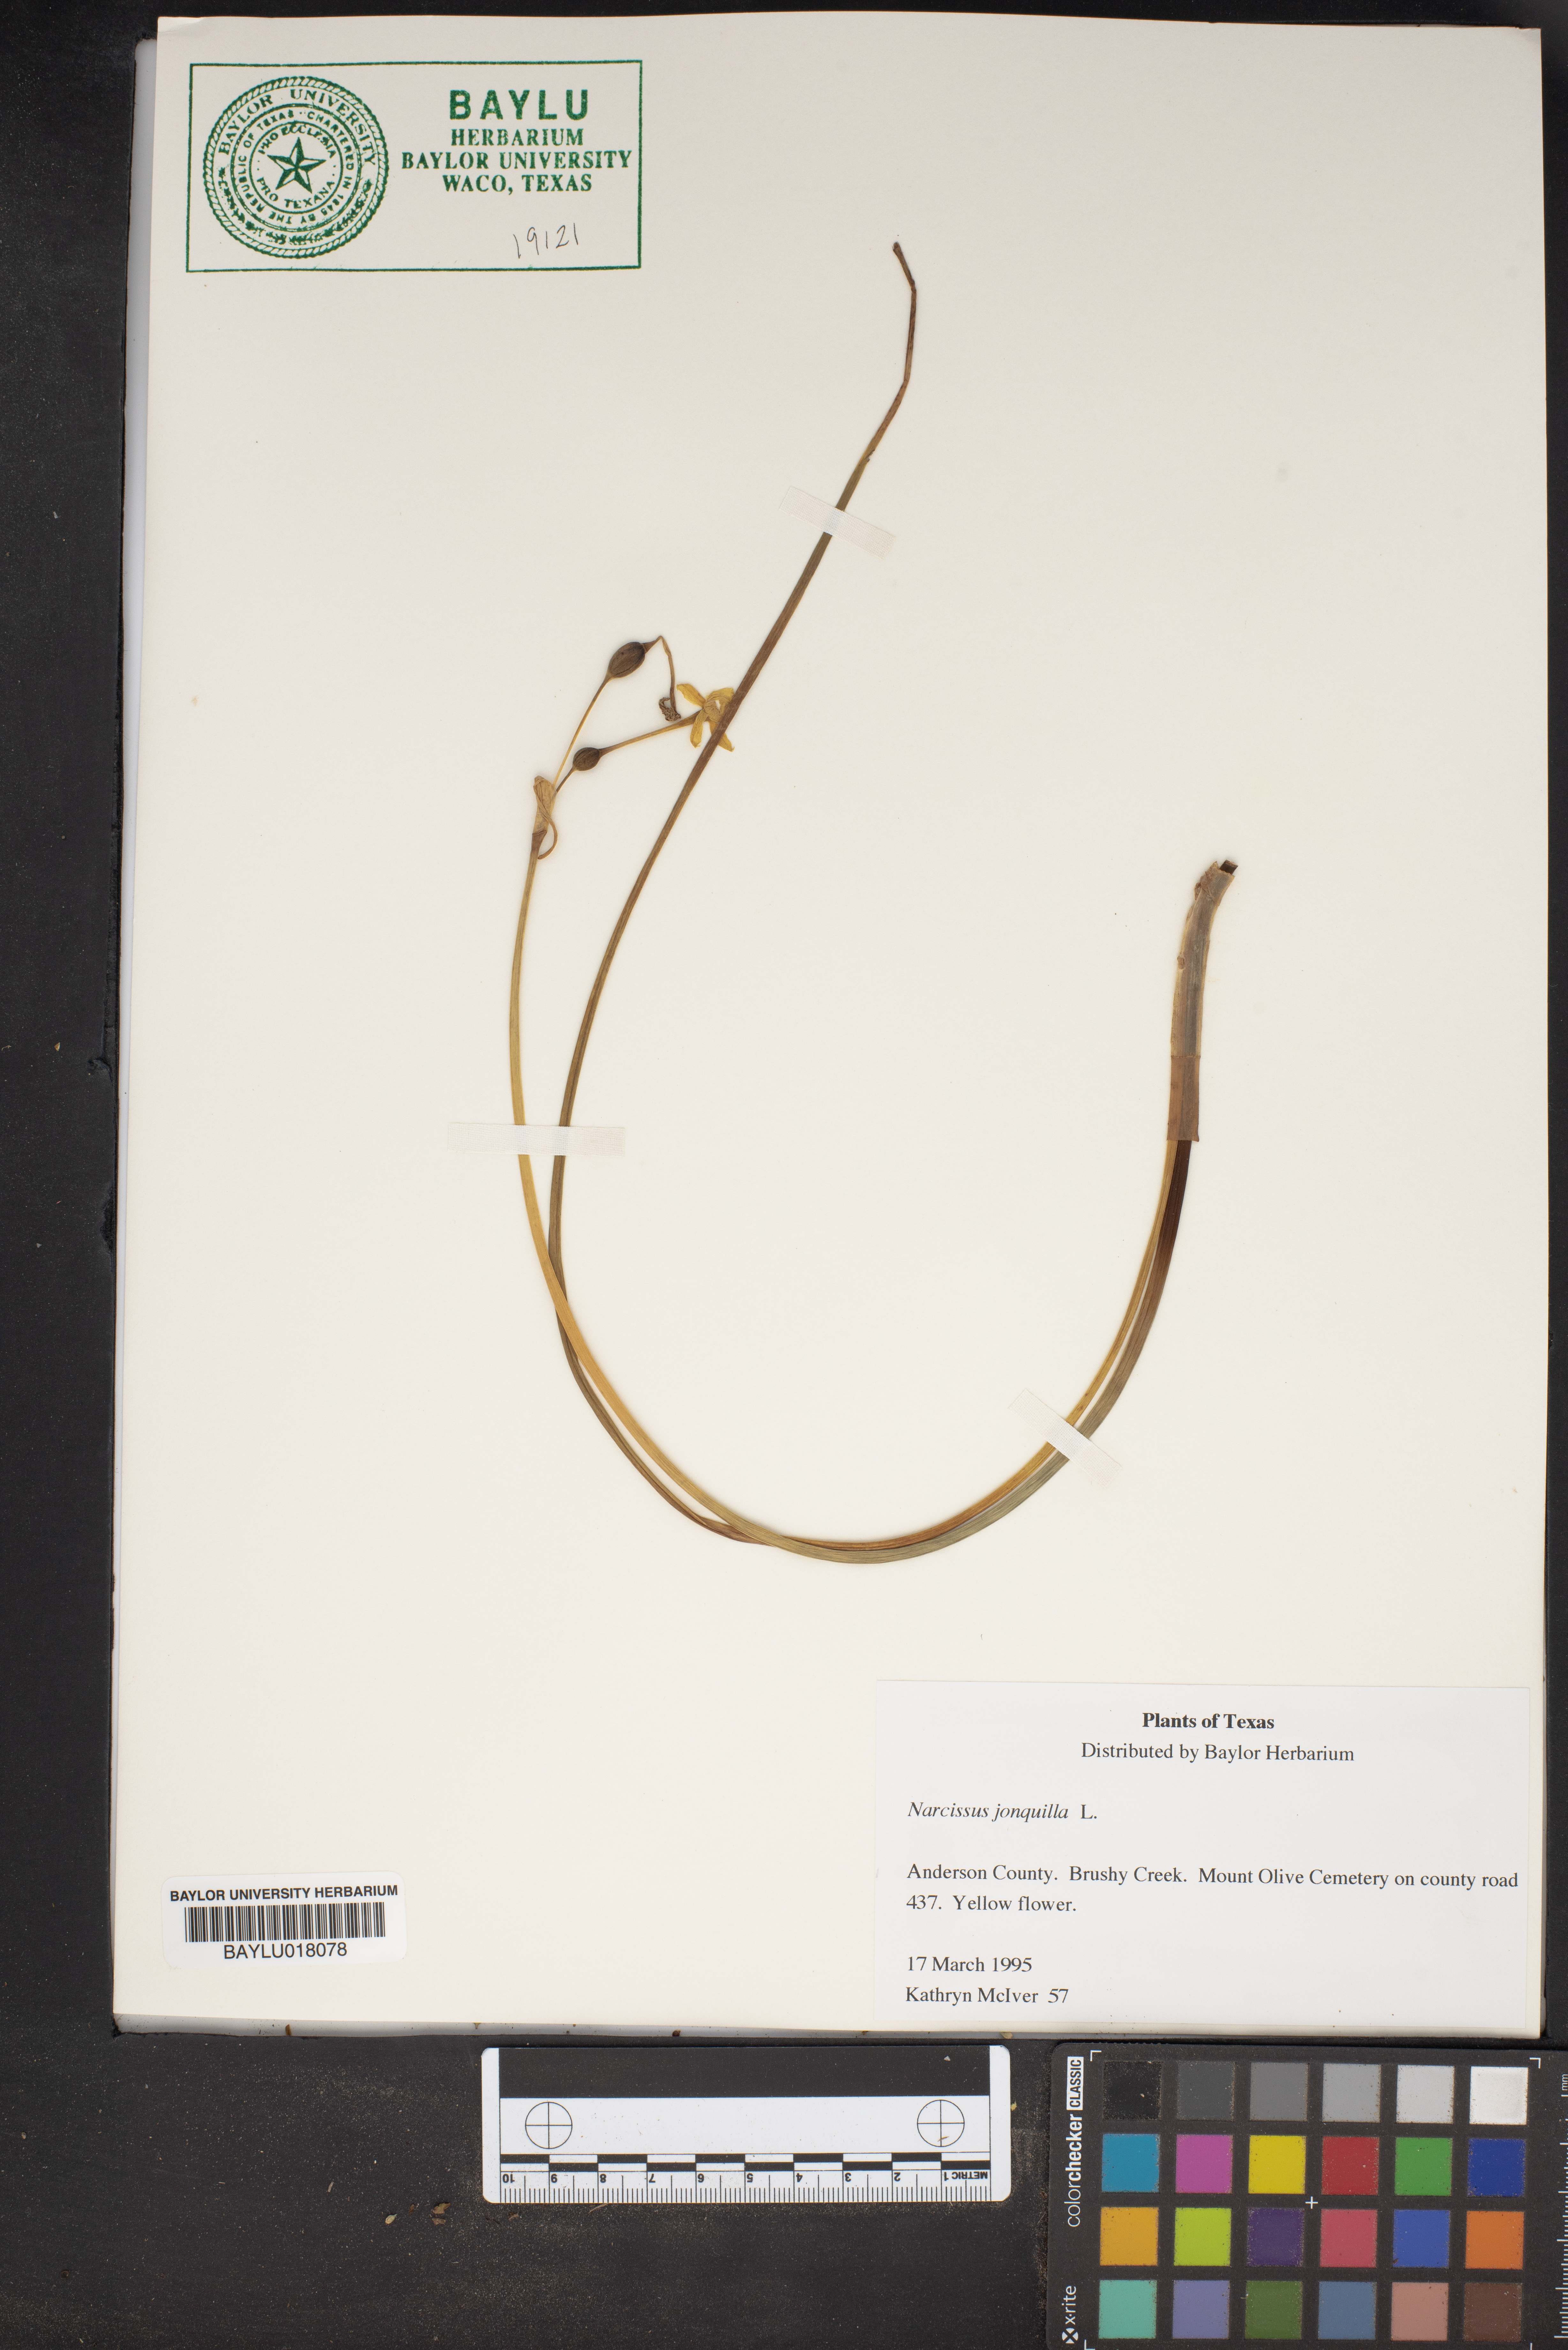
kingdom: Plantae
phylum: Tracheophyta
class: Liliopsida
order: Asparagales
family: Amaryllidaceae
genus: Narcissus
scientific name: Narcissus jonquilla
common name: Jonquil
